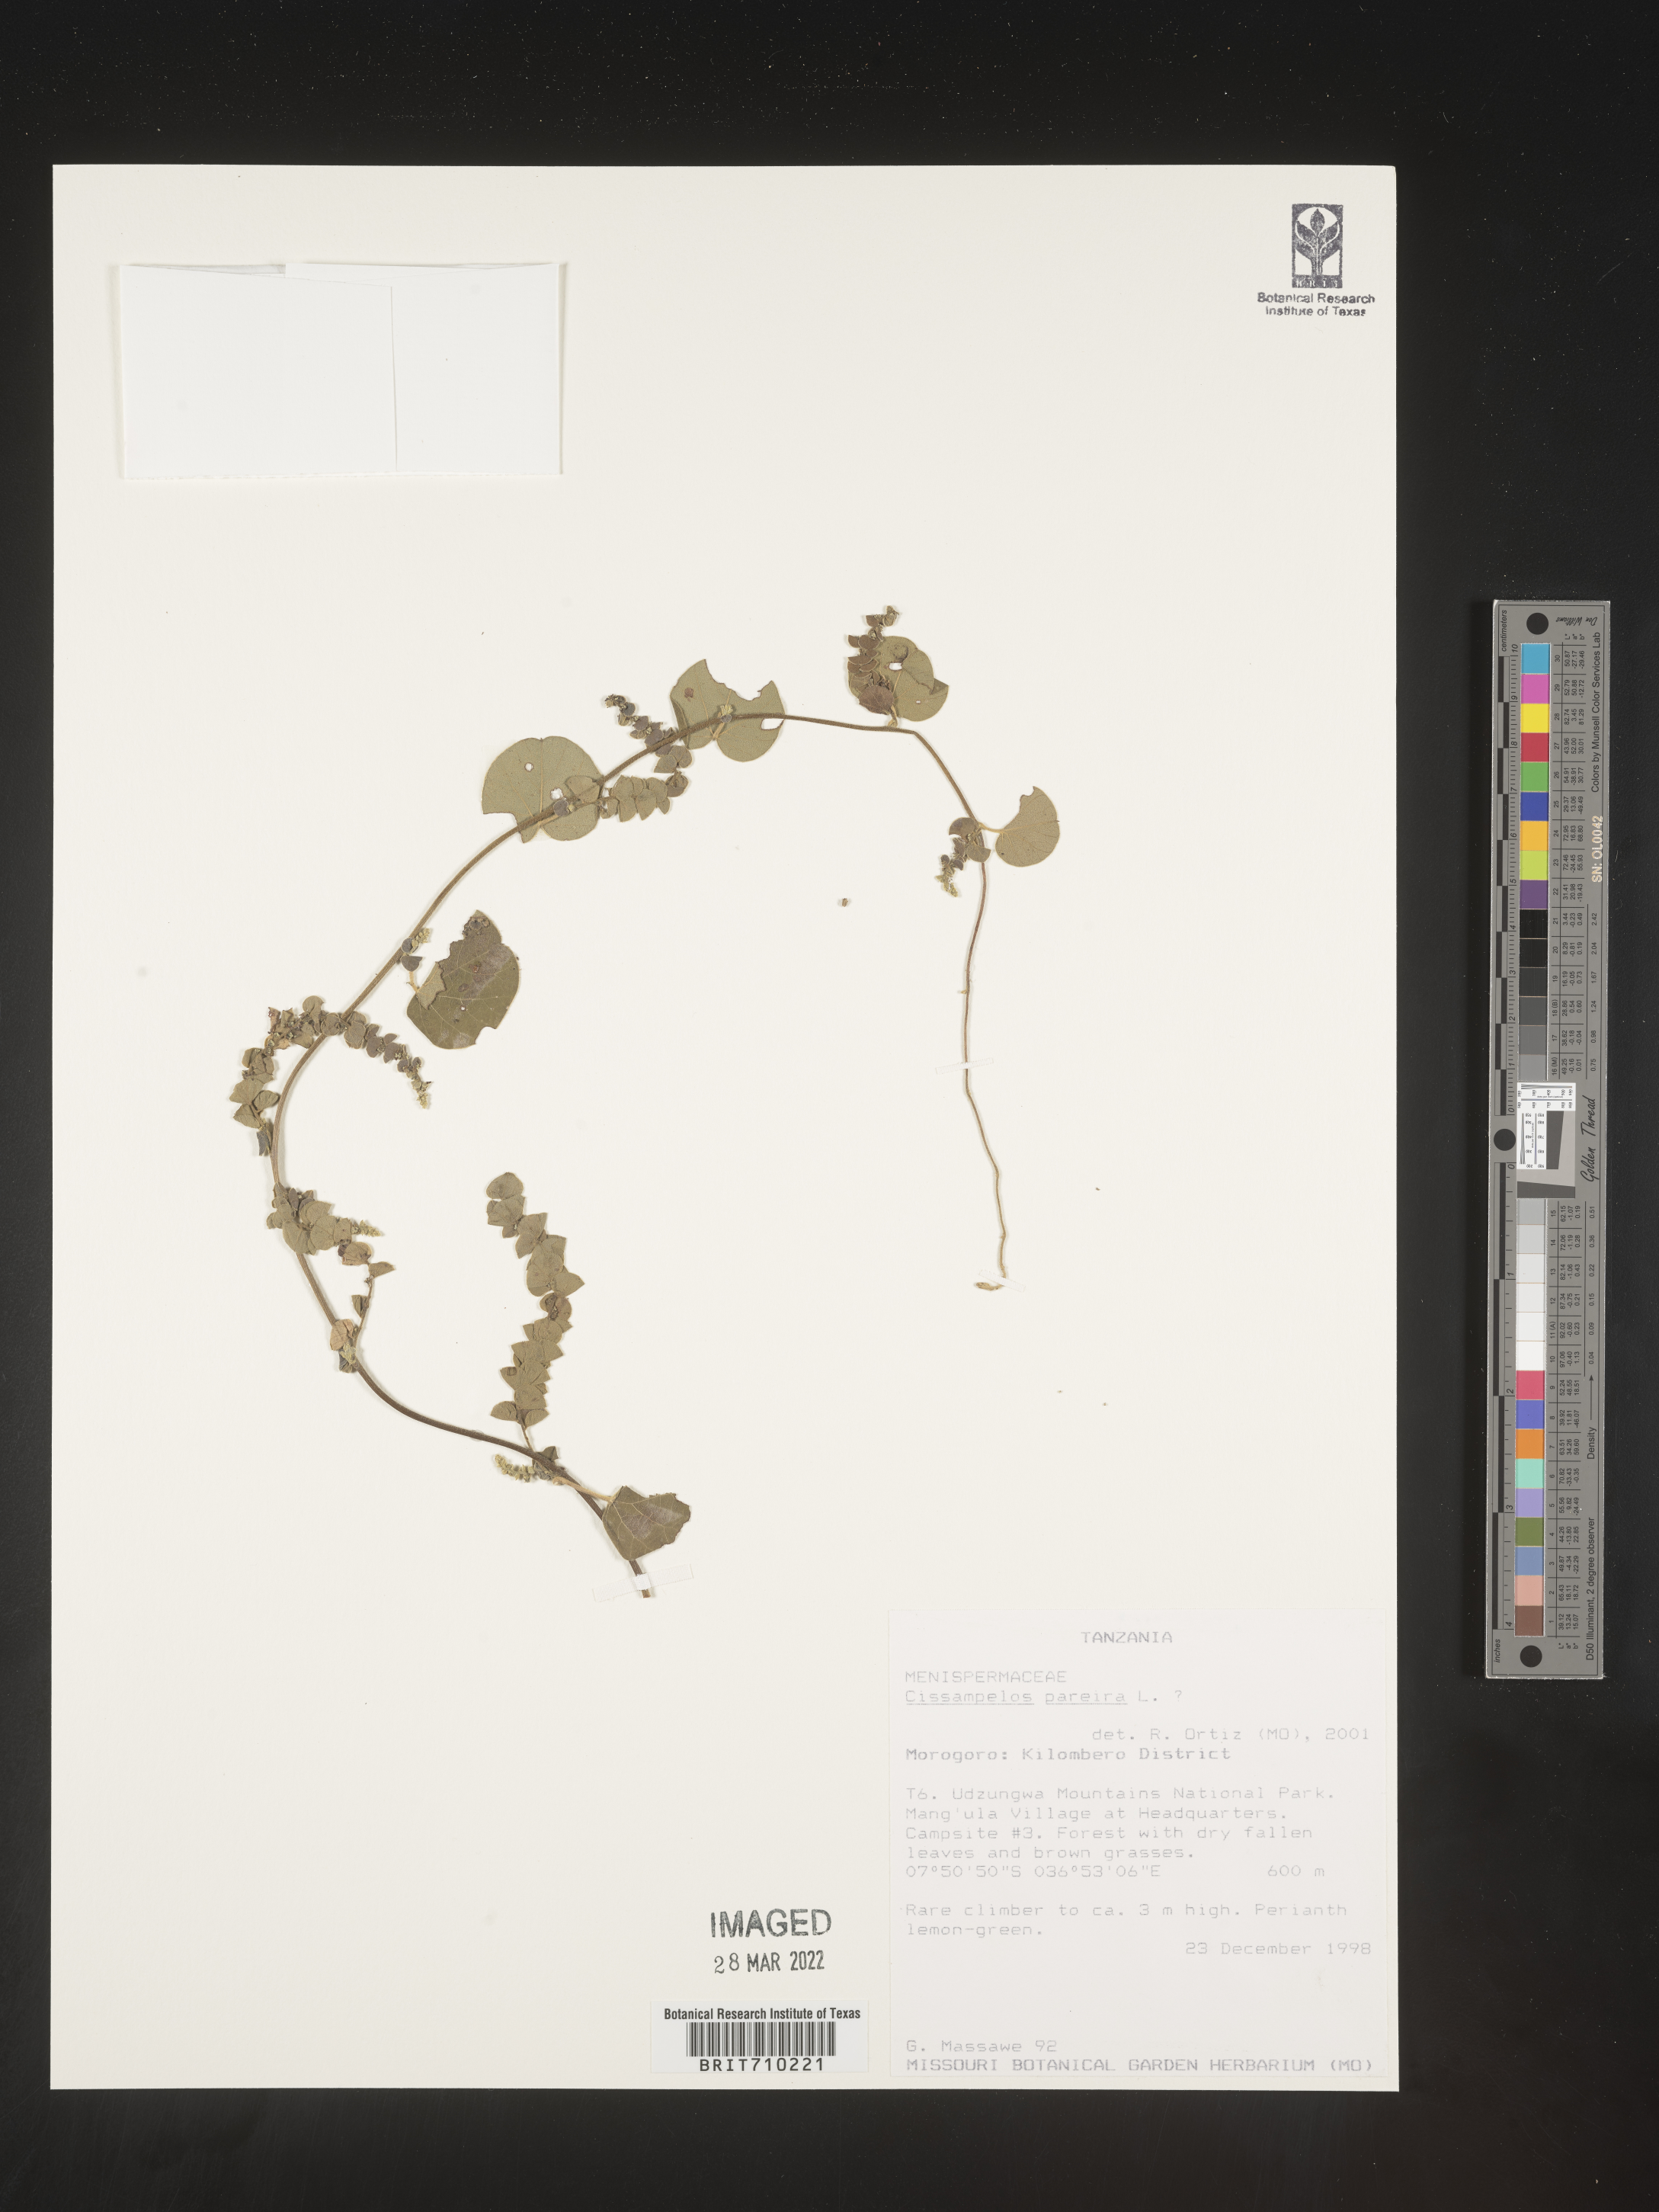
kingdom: Plantae
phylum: Tracheophyta
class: Magnoliopsida
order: Ranunculales
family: Menispermaceae
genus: Cissampelos
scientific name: Cissampelos
